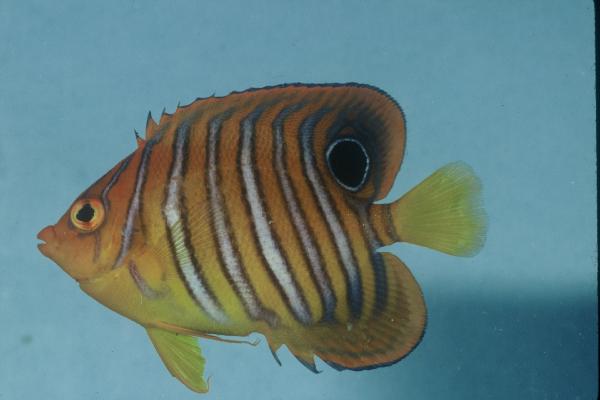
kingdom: Animalia
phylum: Chordata
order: Perciformes
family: Pomacanthidae
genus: Pygoplites
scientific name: Pygoplites diacanthus
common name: Regal angelfish
